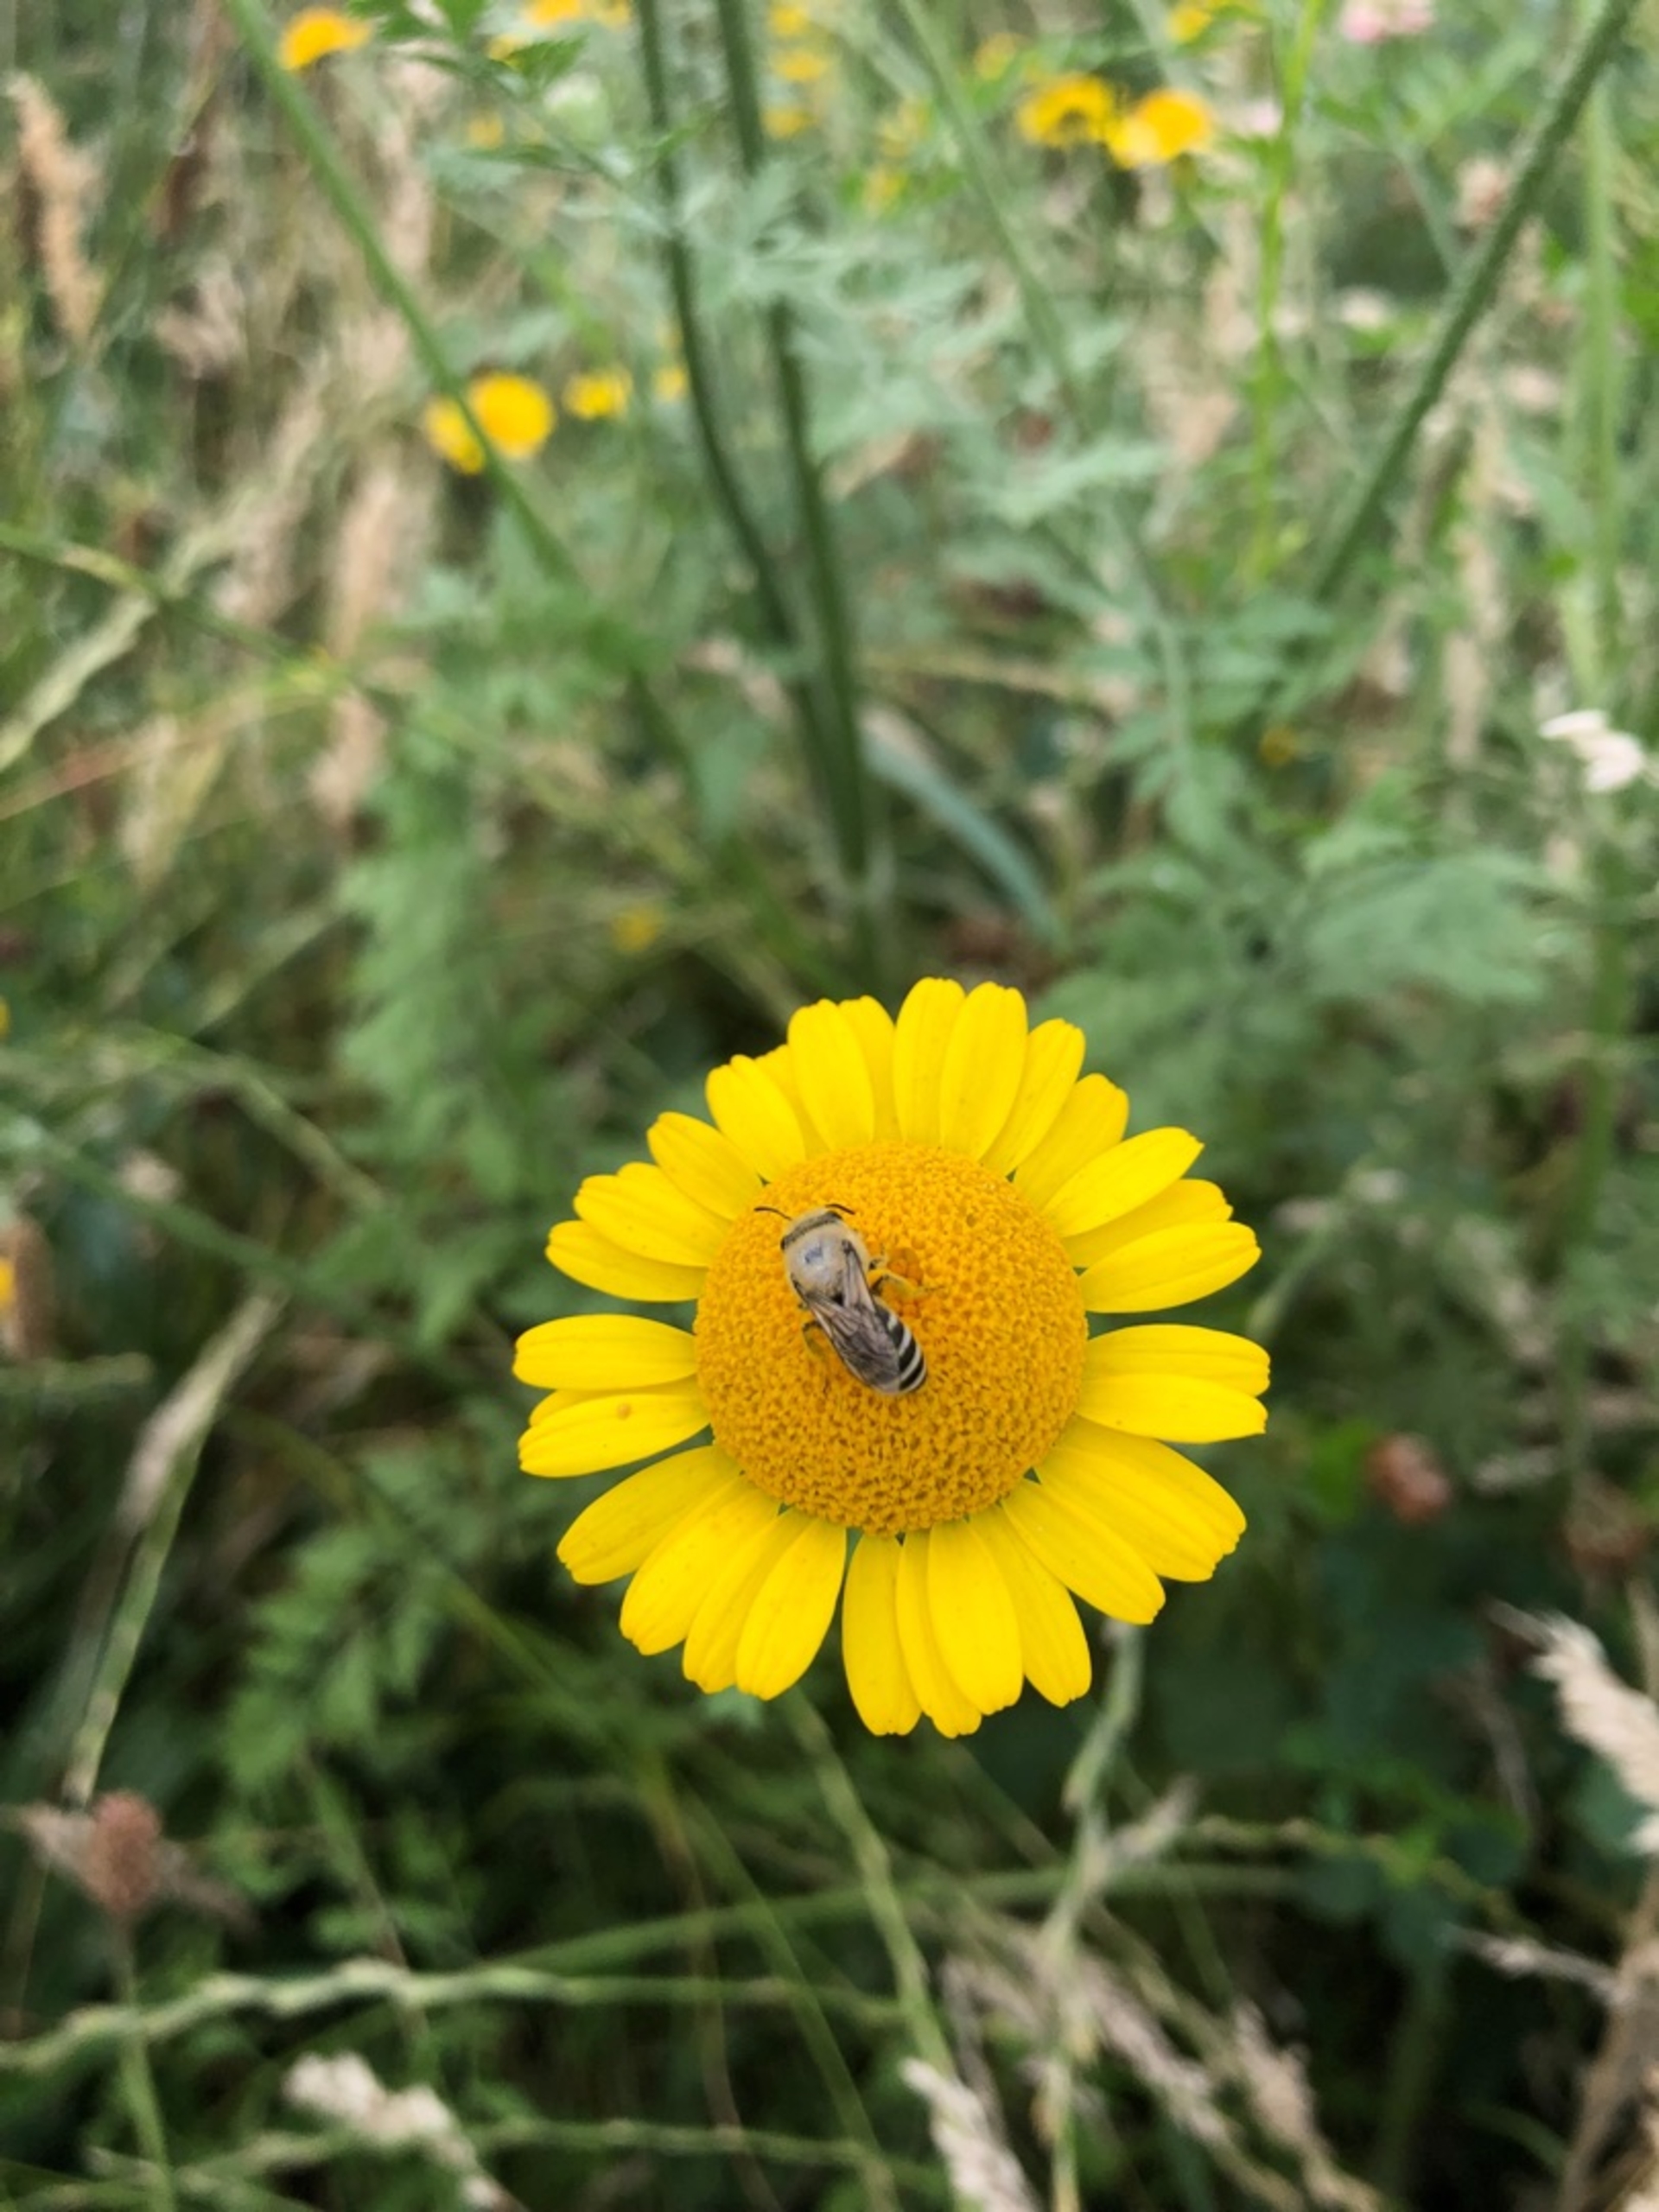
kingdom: Animalia
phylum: Arthropoda
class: Insecta
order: Hymenoptera
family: Colletidae
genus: Colletes
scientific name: Colletes
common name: Silkebier
